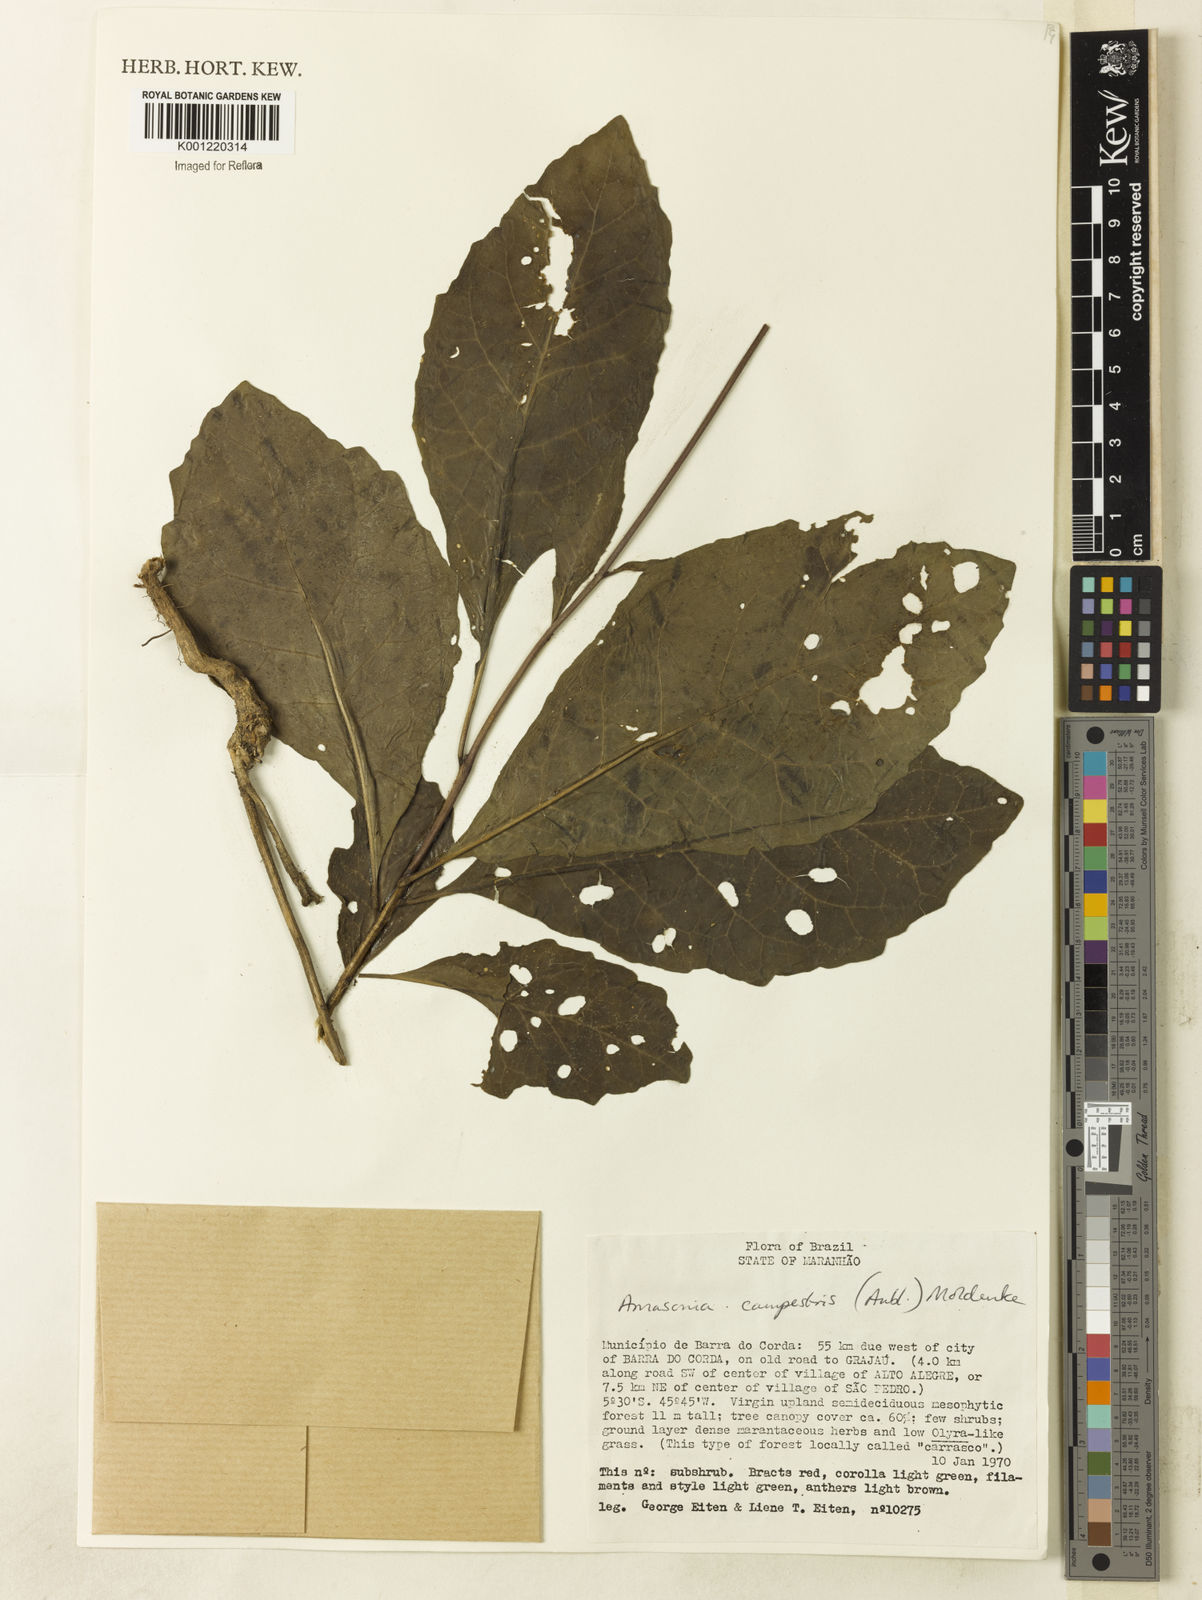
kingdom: Plantae
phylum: Tracheophyta
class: Magnoliopsida
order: Lamiales
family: Lamiaceae
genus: Amasonia
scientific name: Amasonia campestris
